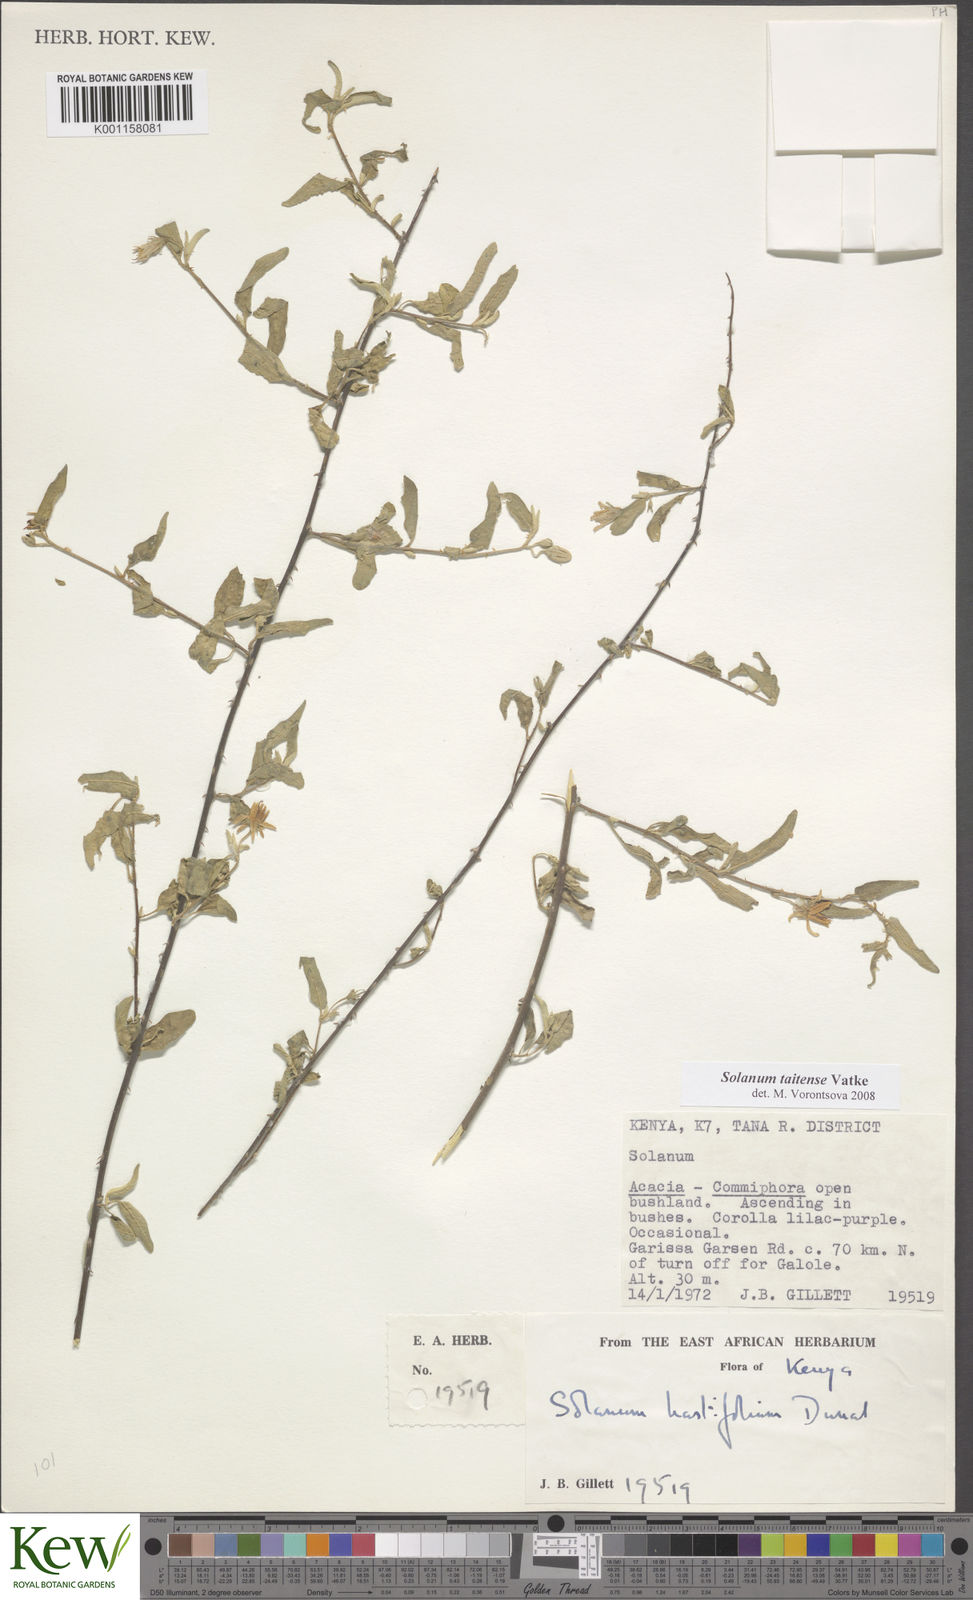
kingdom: Plantae
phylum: Tracheophyta
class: Magnoliopsida
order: Solanales
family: Solanaceae
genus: Solanum
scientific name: Solanum taitense
